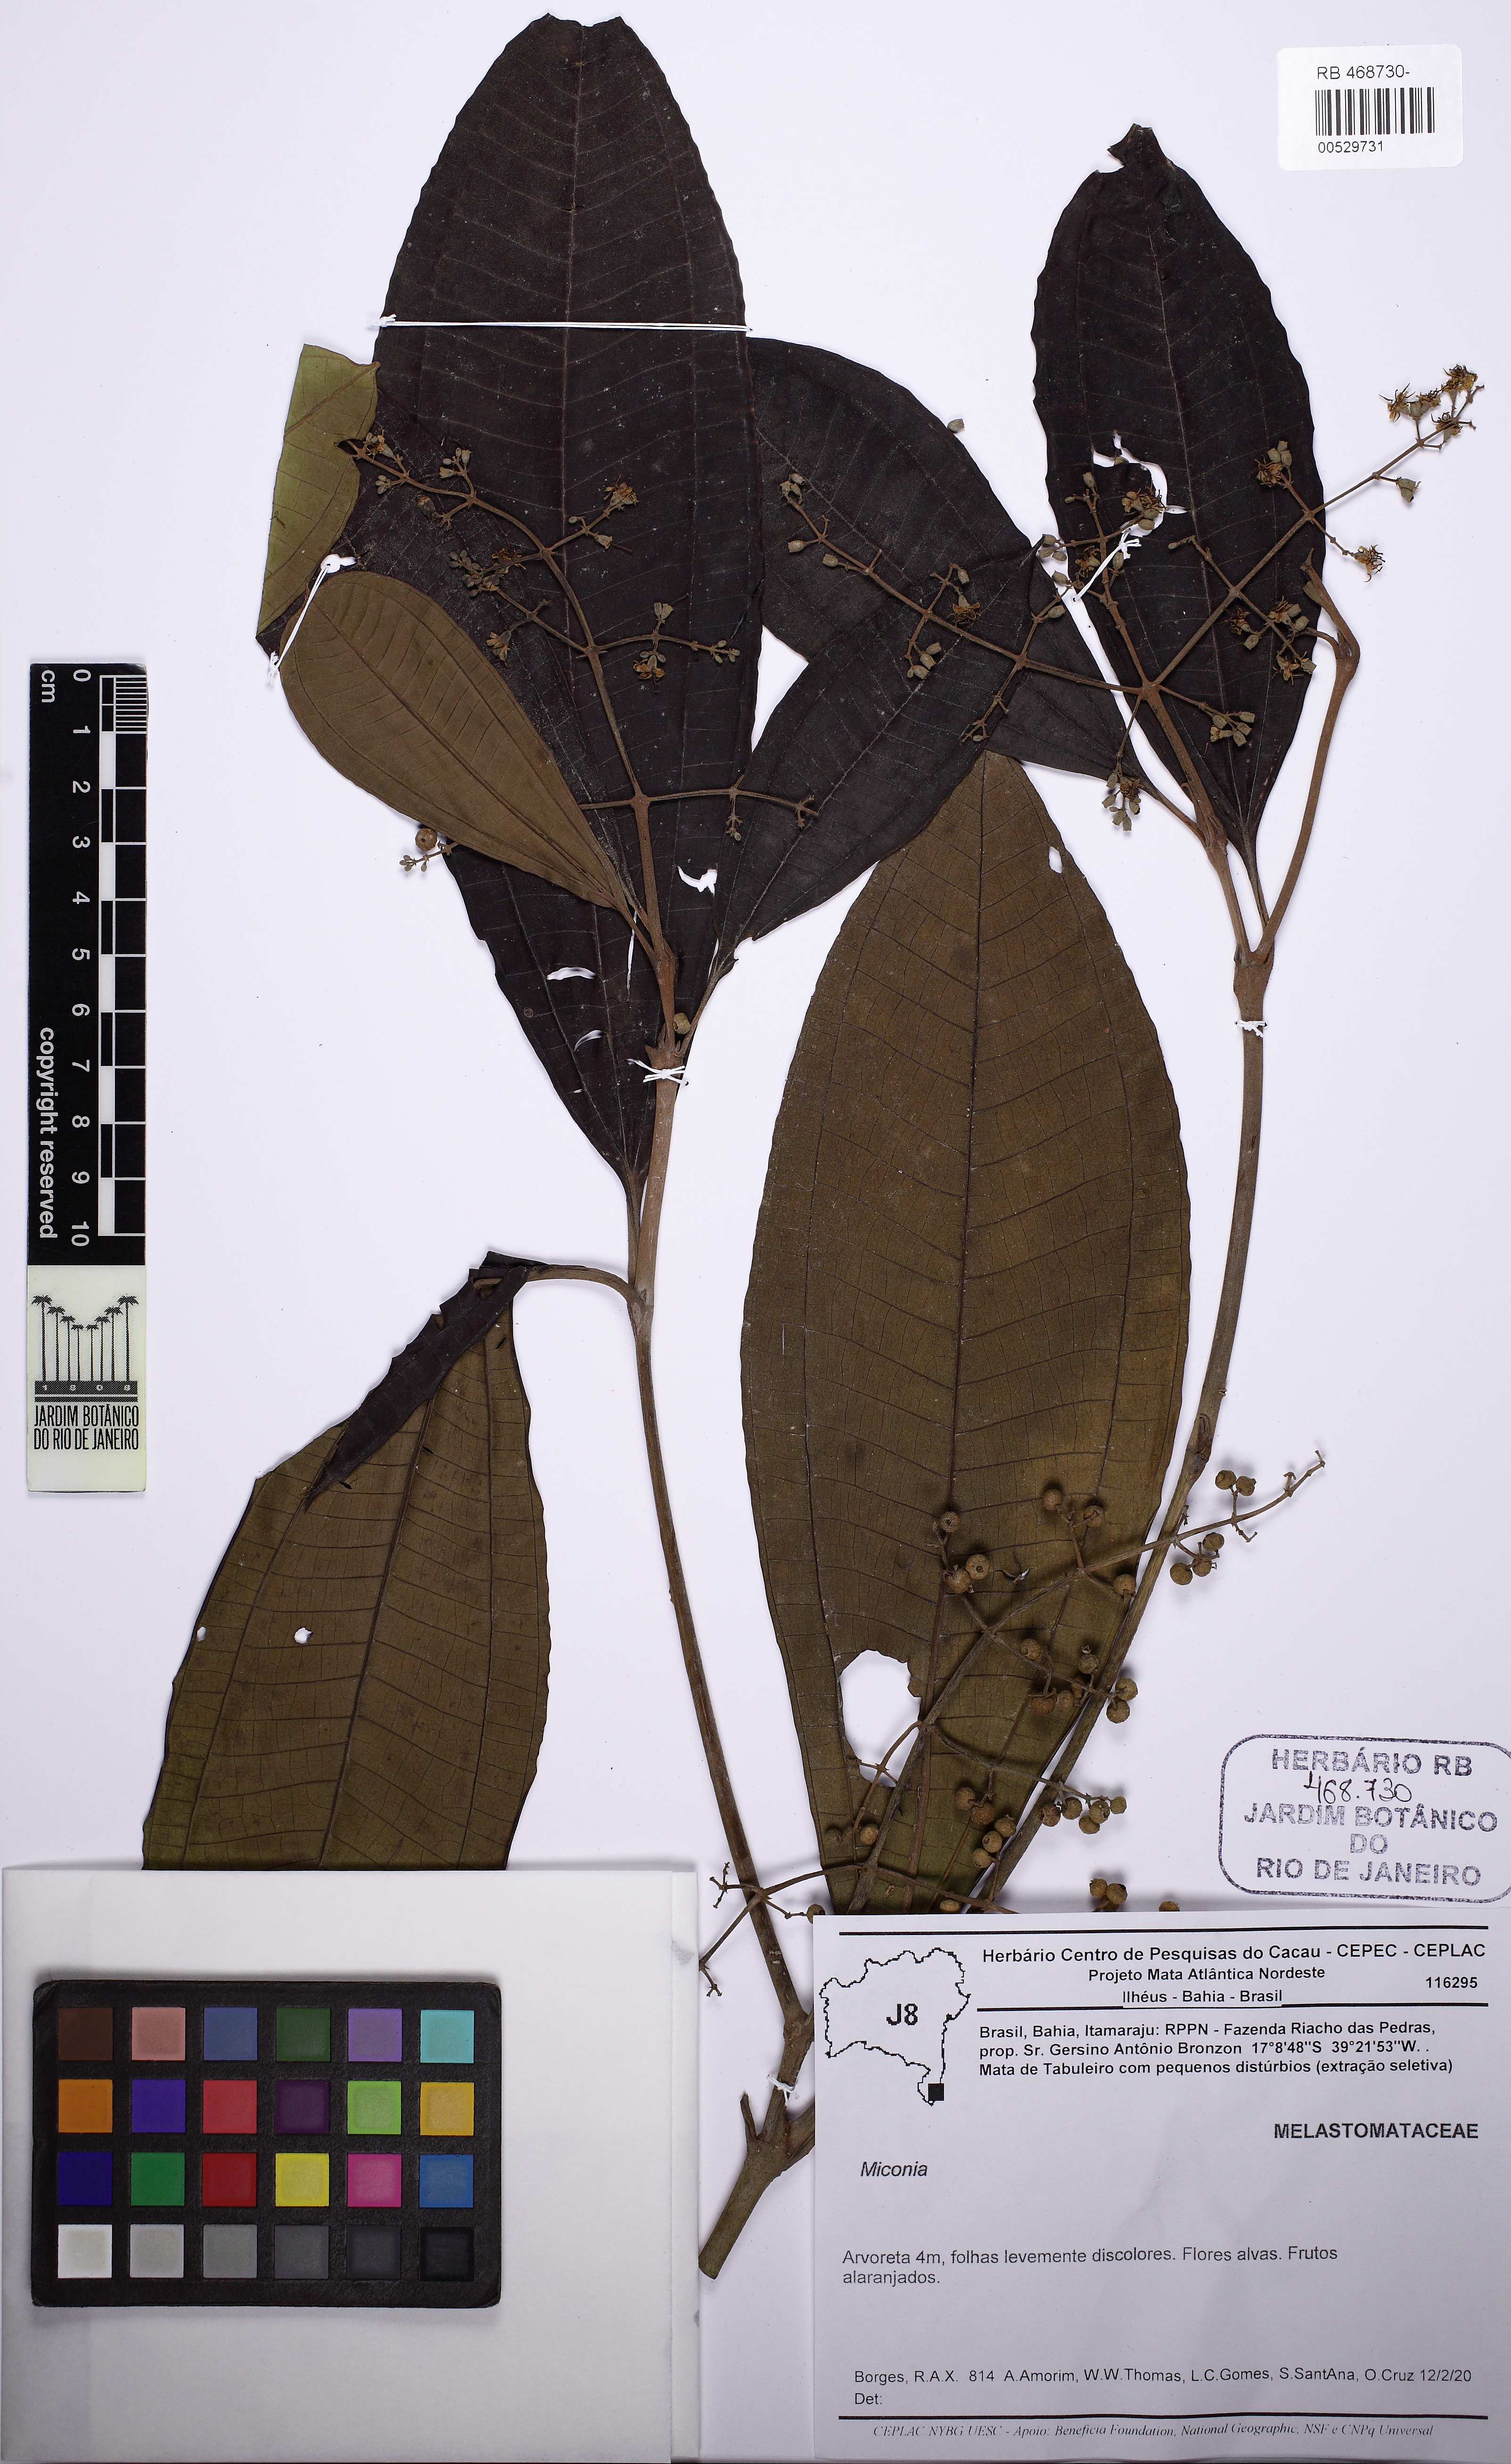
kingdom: Plantae
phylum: Tracheophyta
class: Magnoliopsida
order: Myrtales
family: Melastomataceae
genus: Miconia
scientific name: Miconia
